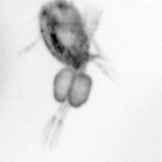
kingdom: Animalia
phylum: Arthropoda
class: Copepoda
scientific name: Copepoda
